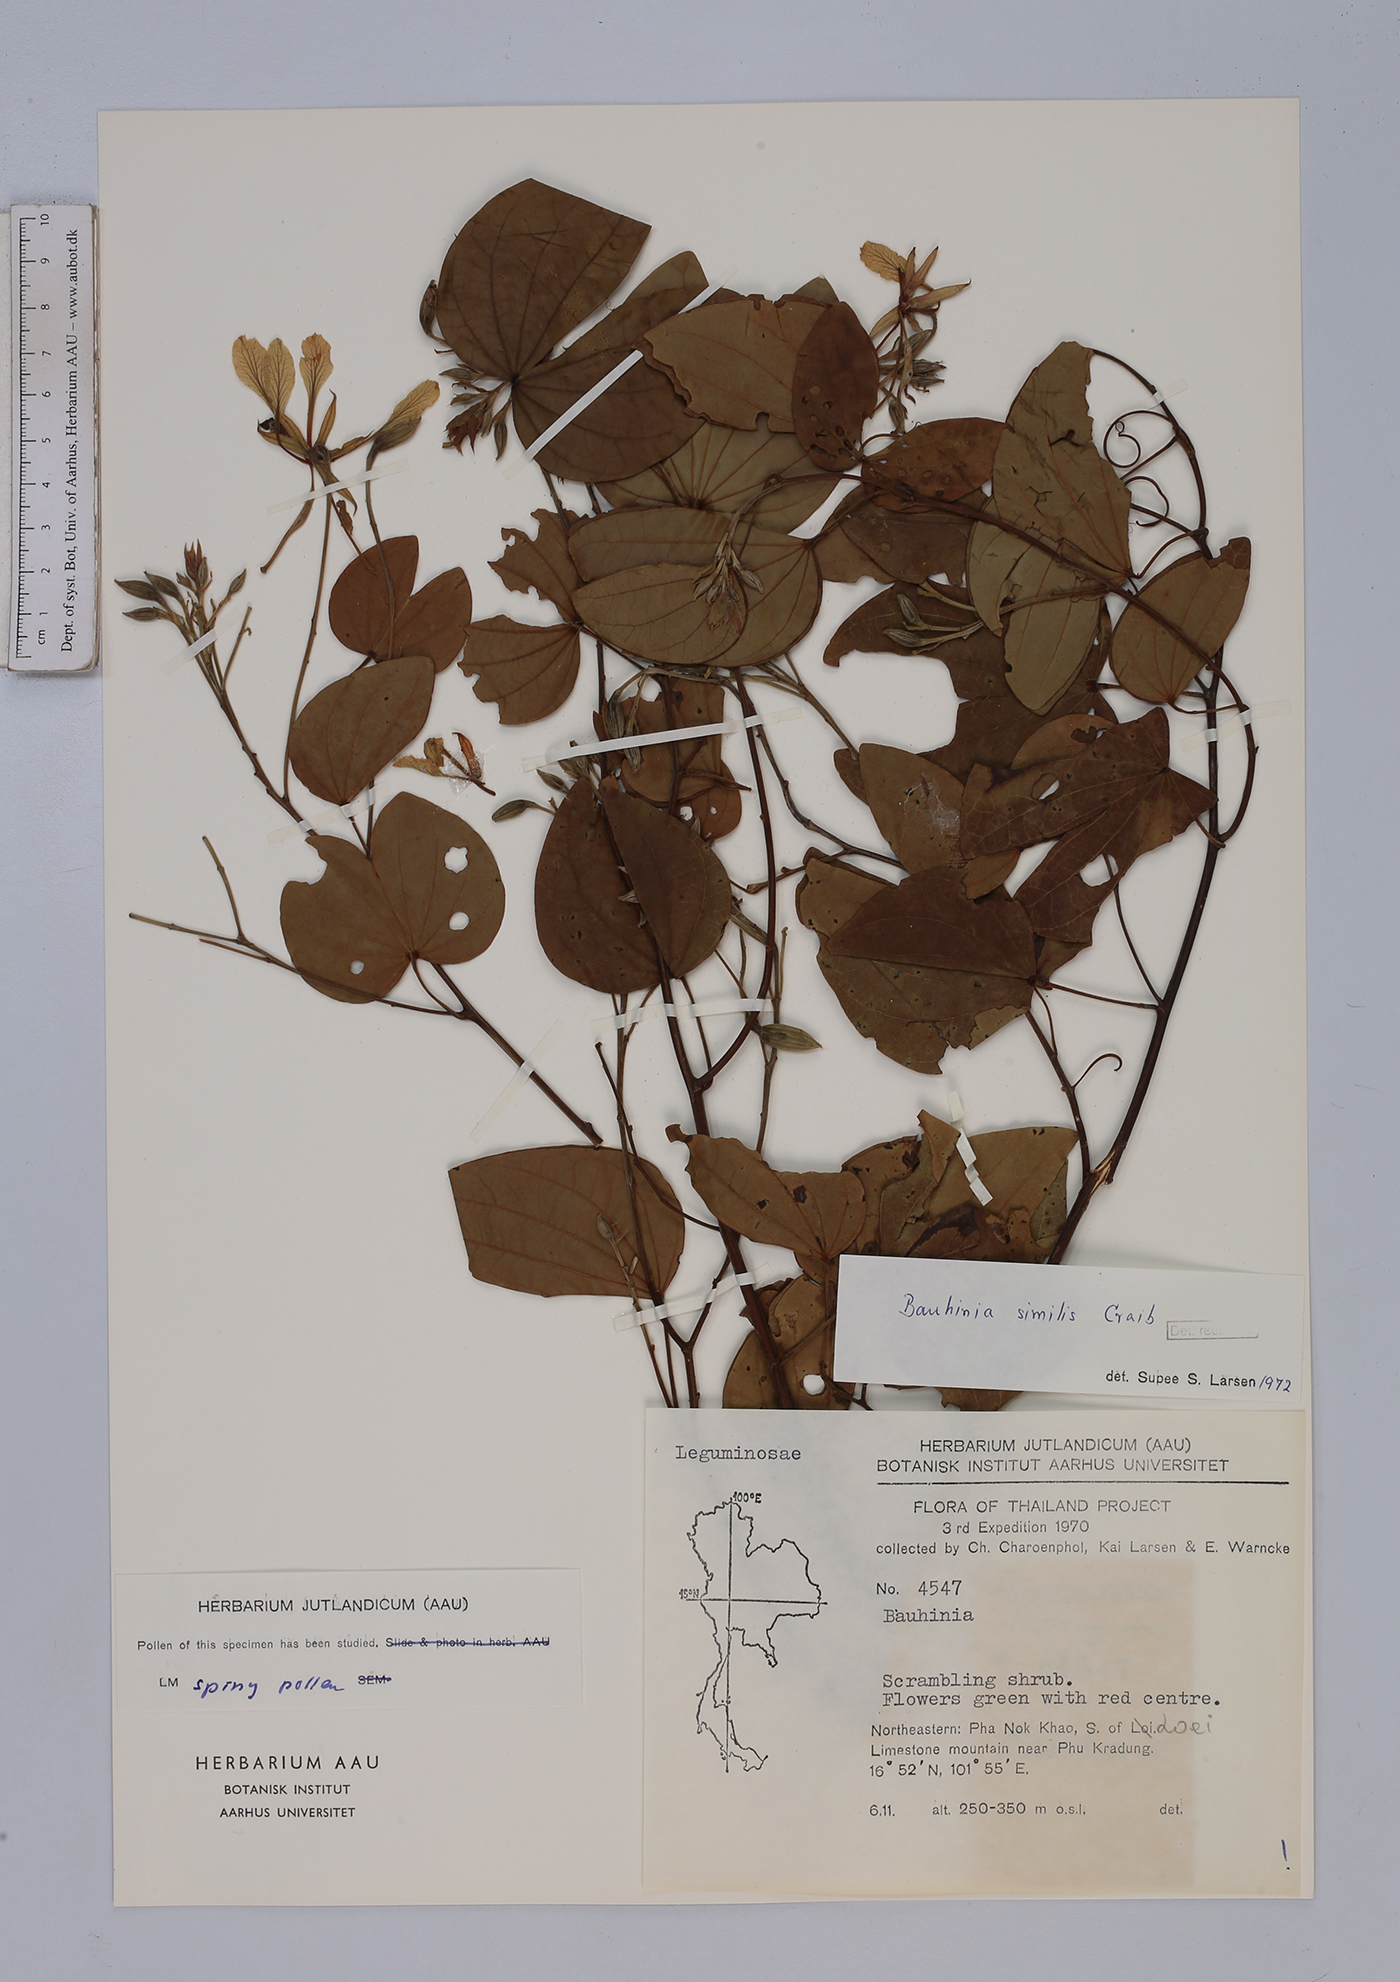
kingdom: Plantae
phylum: Tracheophyta
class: Magnoliopsida
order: Fabales
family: Fabaceae
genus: Phanera
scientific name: Phanera similis
